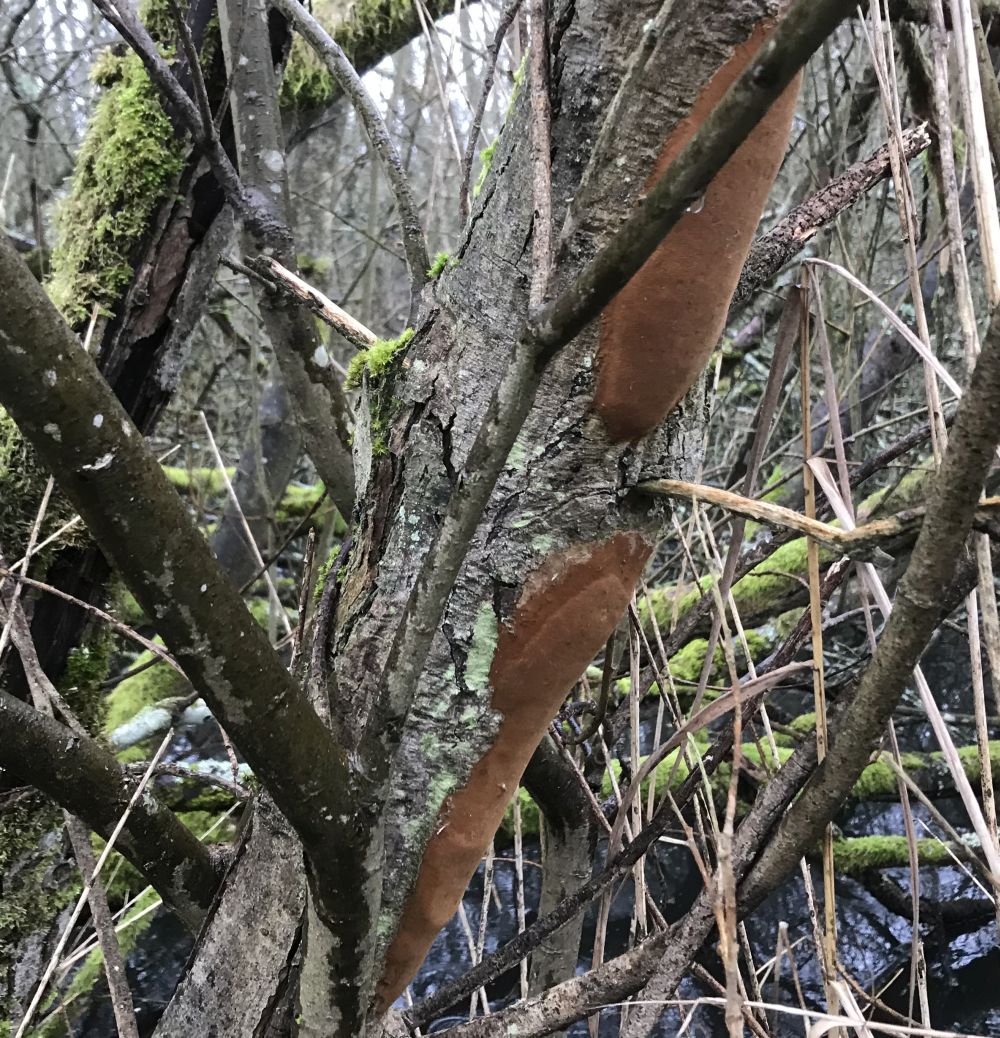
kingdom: Fungi
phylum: Basidiomycota
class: Agaricomycetes
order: Hymenochaetales
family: Hymenochaetaceae
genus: Fomitiporia
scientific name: Fomitiporia punctata
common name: pude-ildporesvamp
